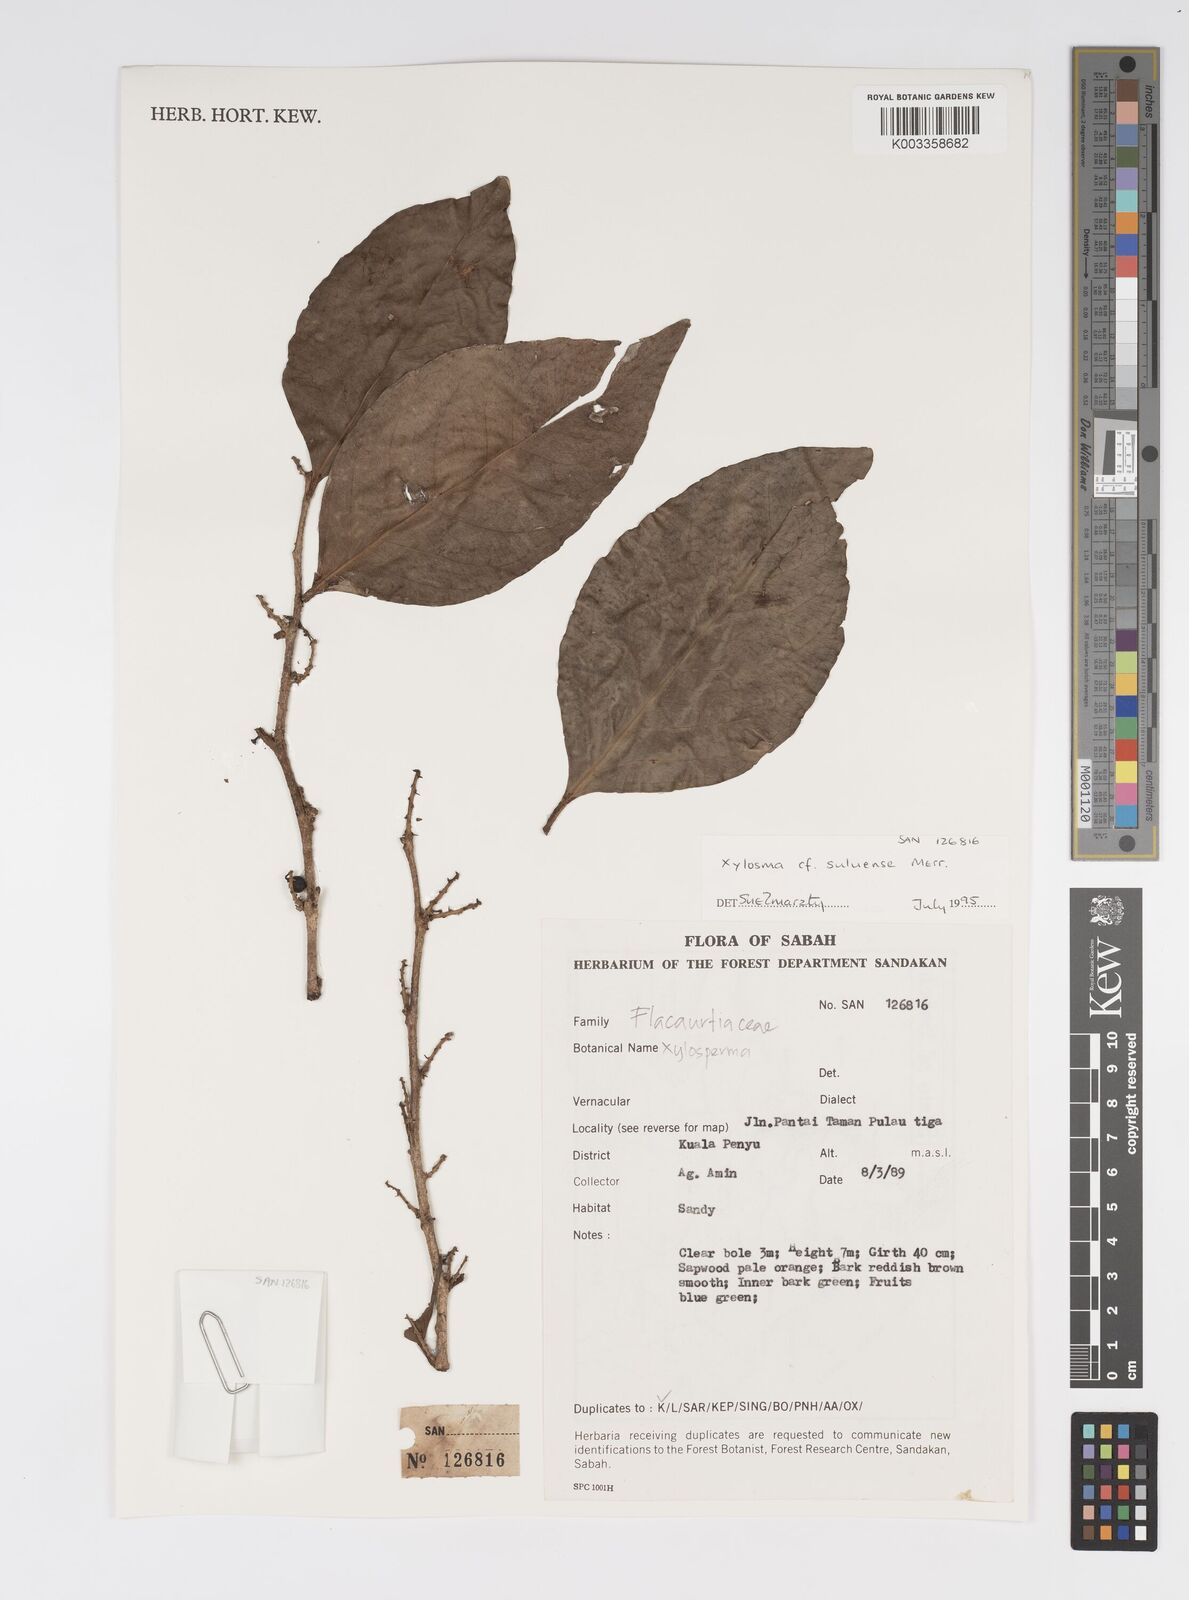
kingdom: Plantae
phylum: Tracheophyta
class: Magnoliopsida
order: Malpighiales
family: Salicaceae
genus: Xylosma
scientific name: Xylosma
